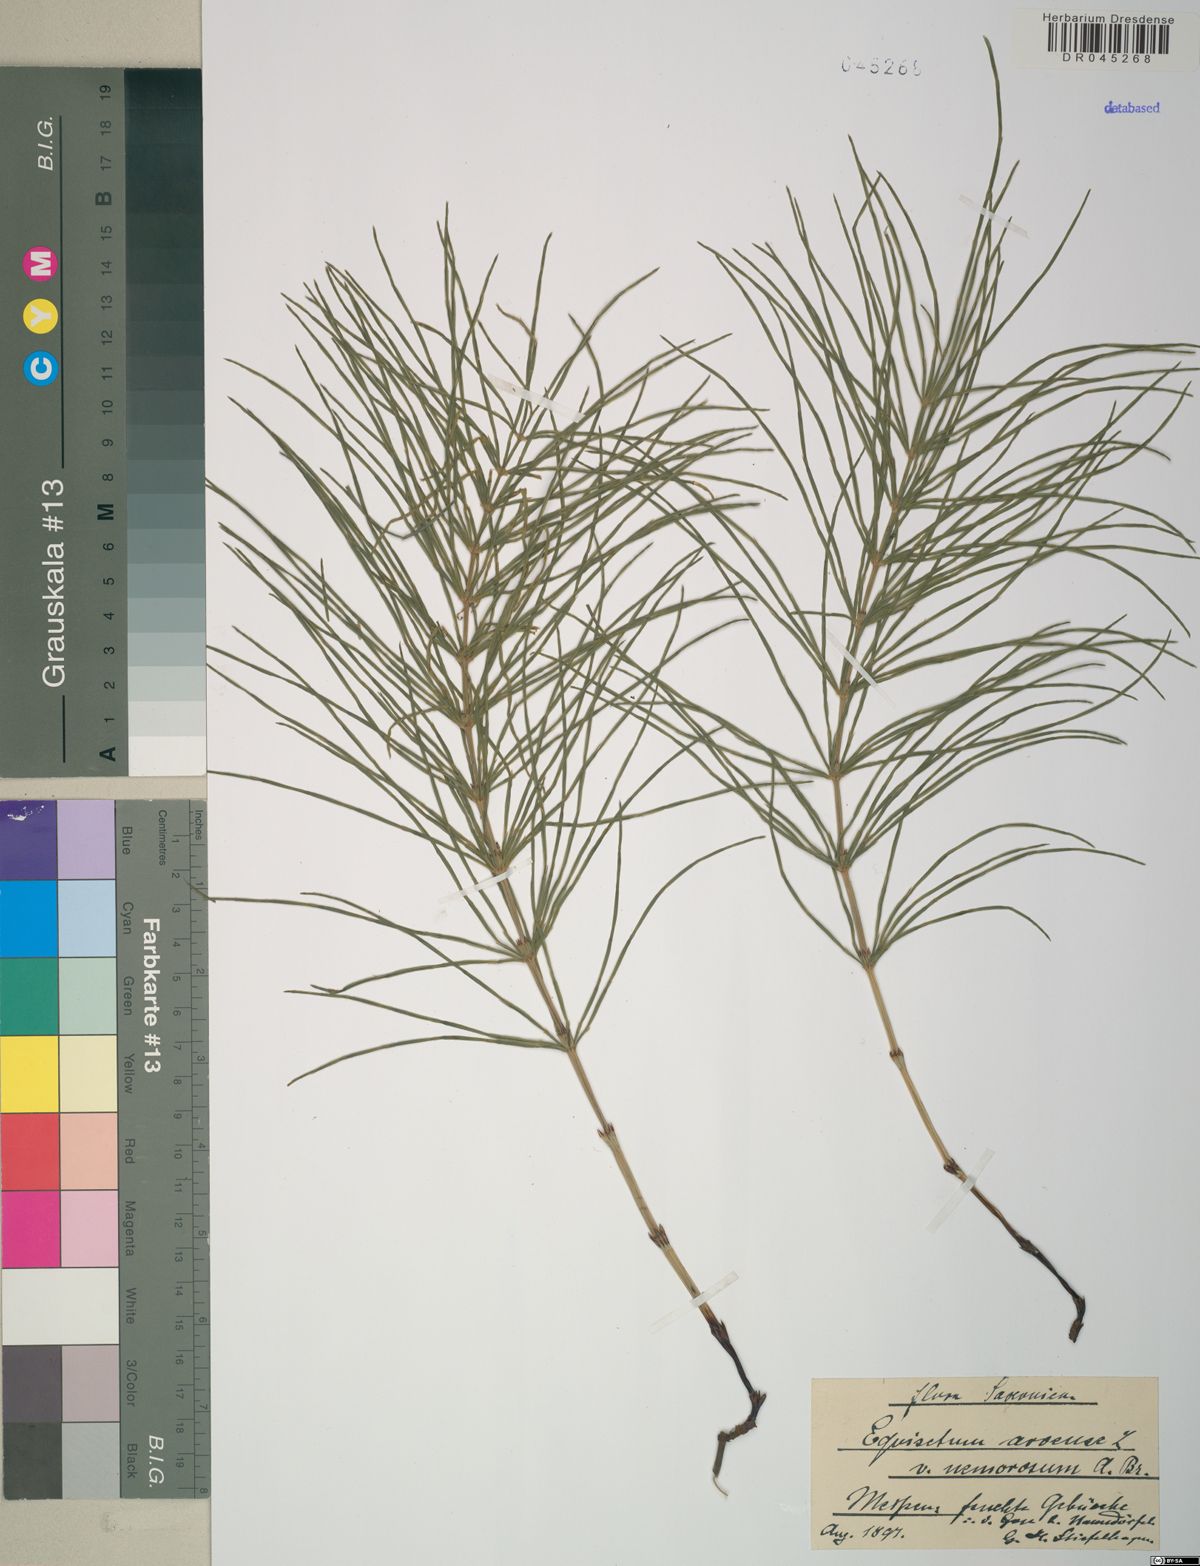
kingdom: Plantae
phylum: Tracheophyta
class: Polypodiopsida
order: Equisetales
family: Equisetaceae
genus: Equisetum
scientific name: Equisetum arvense
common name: Field horsetail
